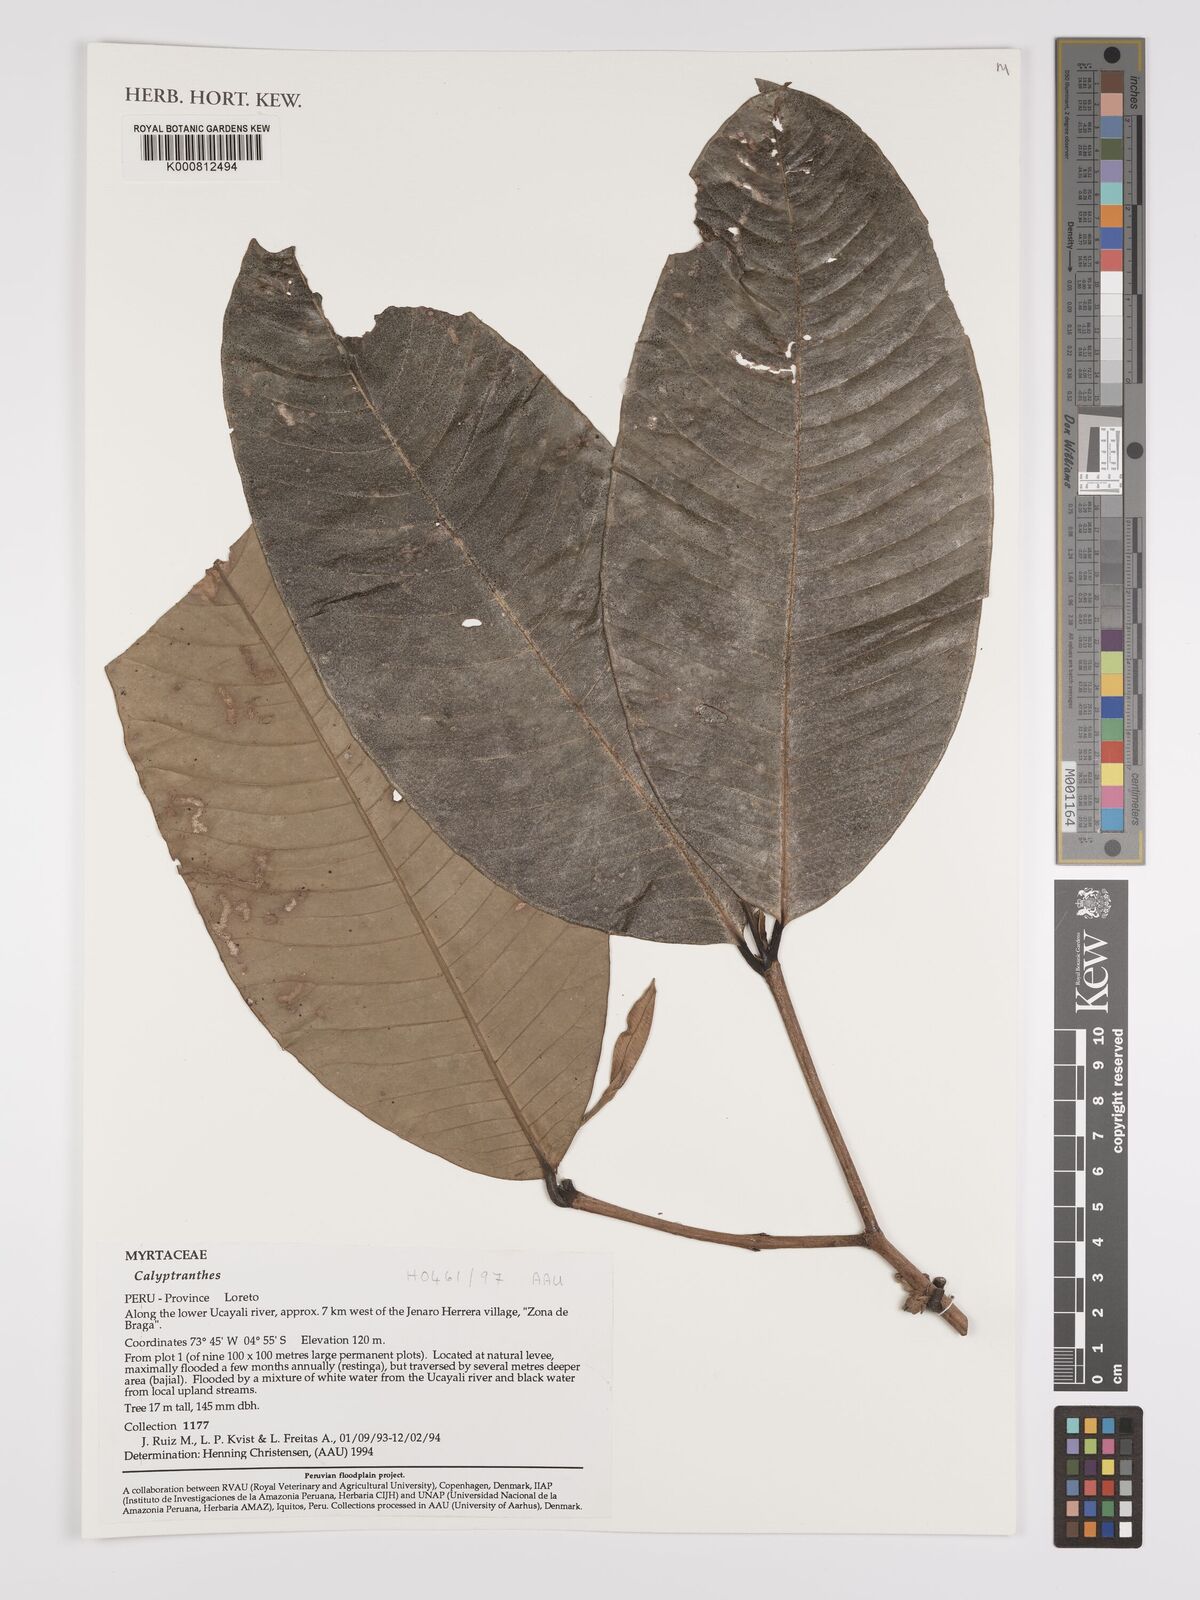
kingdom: Plantae
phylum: Tracheophyta
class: Magnoliopsida
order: Myrtales
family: Myrtaceae
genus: Calyptranthes
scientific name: Calyptranthes
